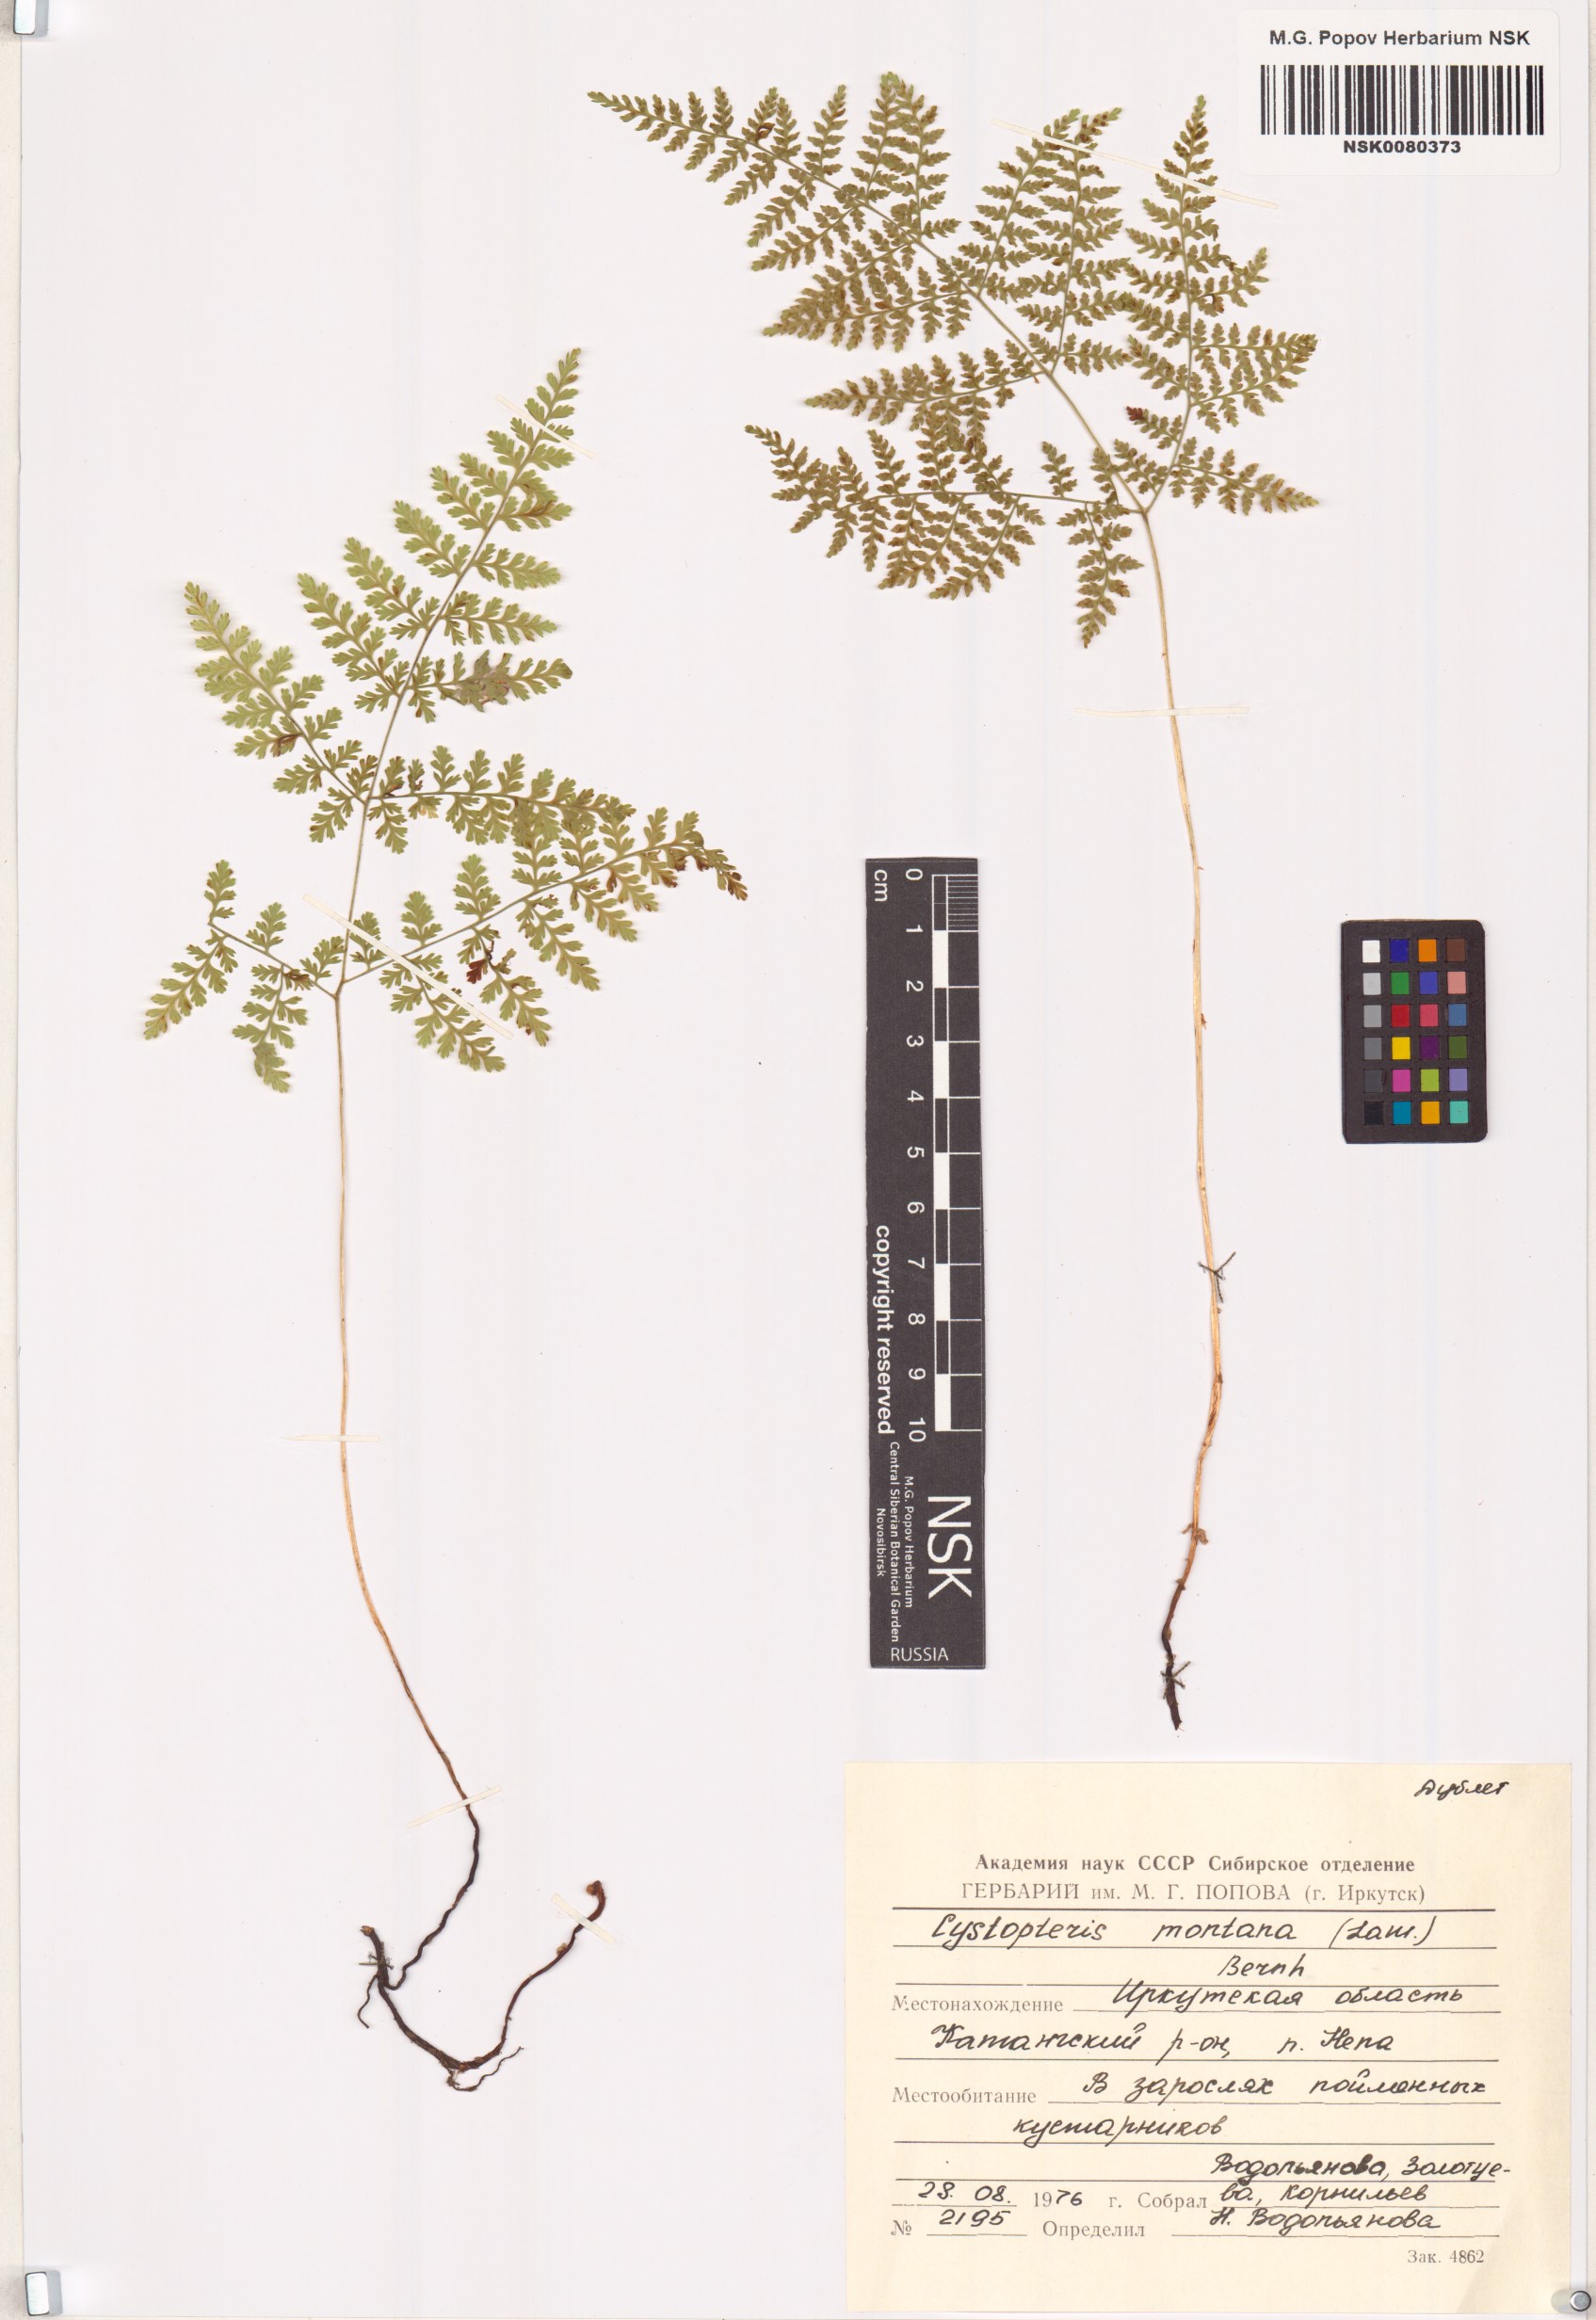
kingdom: Plantae
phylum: Tracheophyta
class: Polypodiopsida
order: Polypodiales
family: Cystopteridaceae
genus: Cystopteris
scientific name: Cystopteris montana
